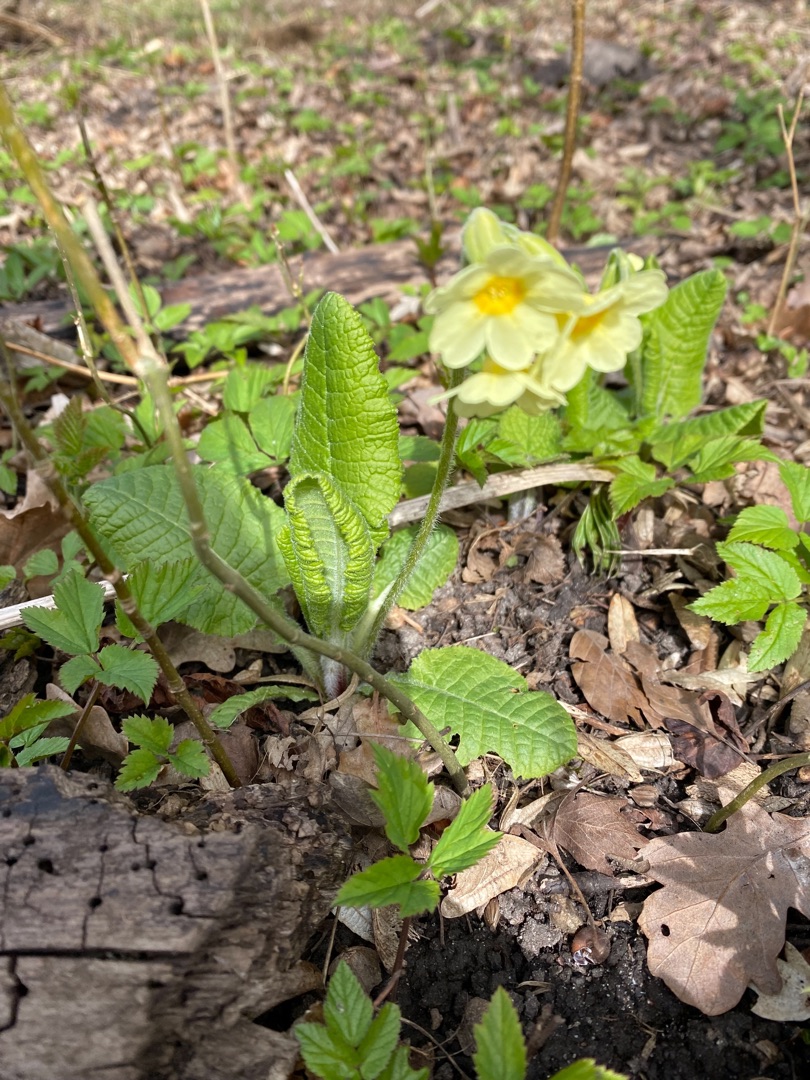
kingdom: Plantae
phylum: Tracheophyta
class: Magnoliopsida
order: Ericales
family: Primulaceae
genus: Primula
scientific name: Primula elatior
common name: Fladkravet kodriver
